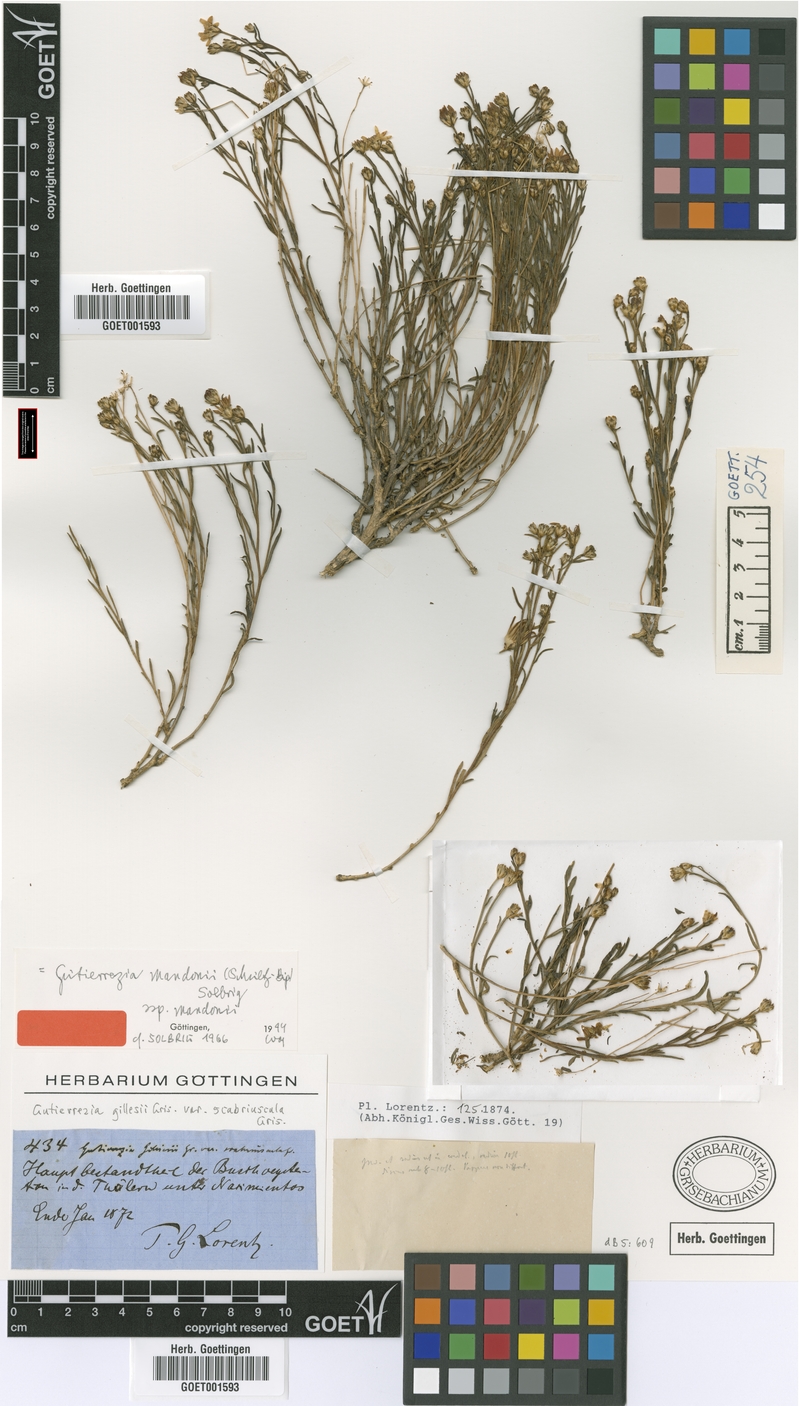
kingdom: Plantae
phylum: Tracheophyta
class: Magnoliopsida
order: Asterales
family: Asteraceae
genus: Gutierrezia
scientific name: Gutierrezia mandonii
